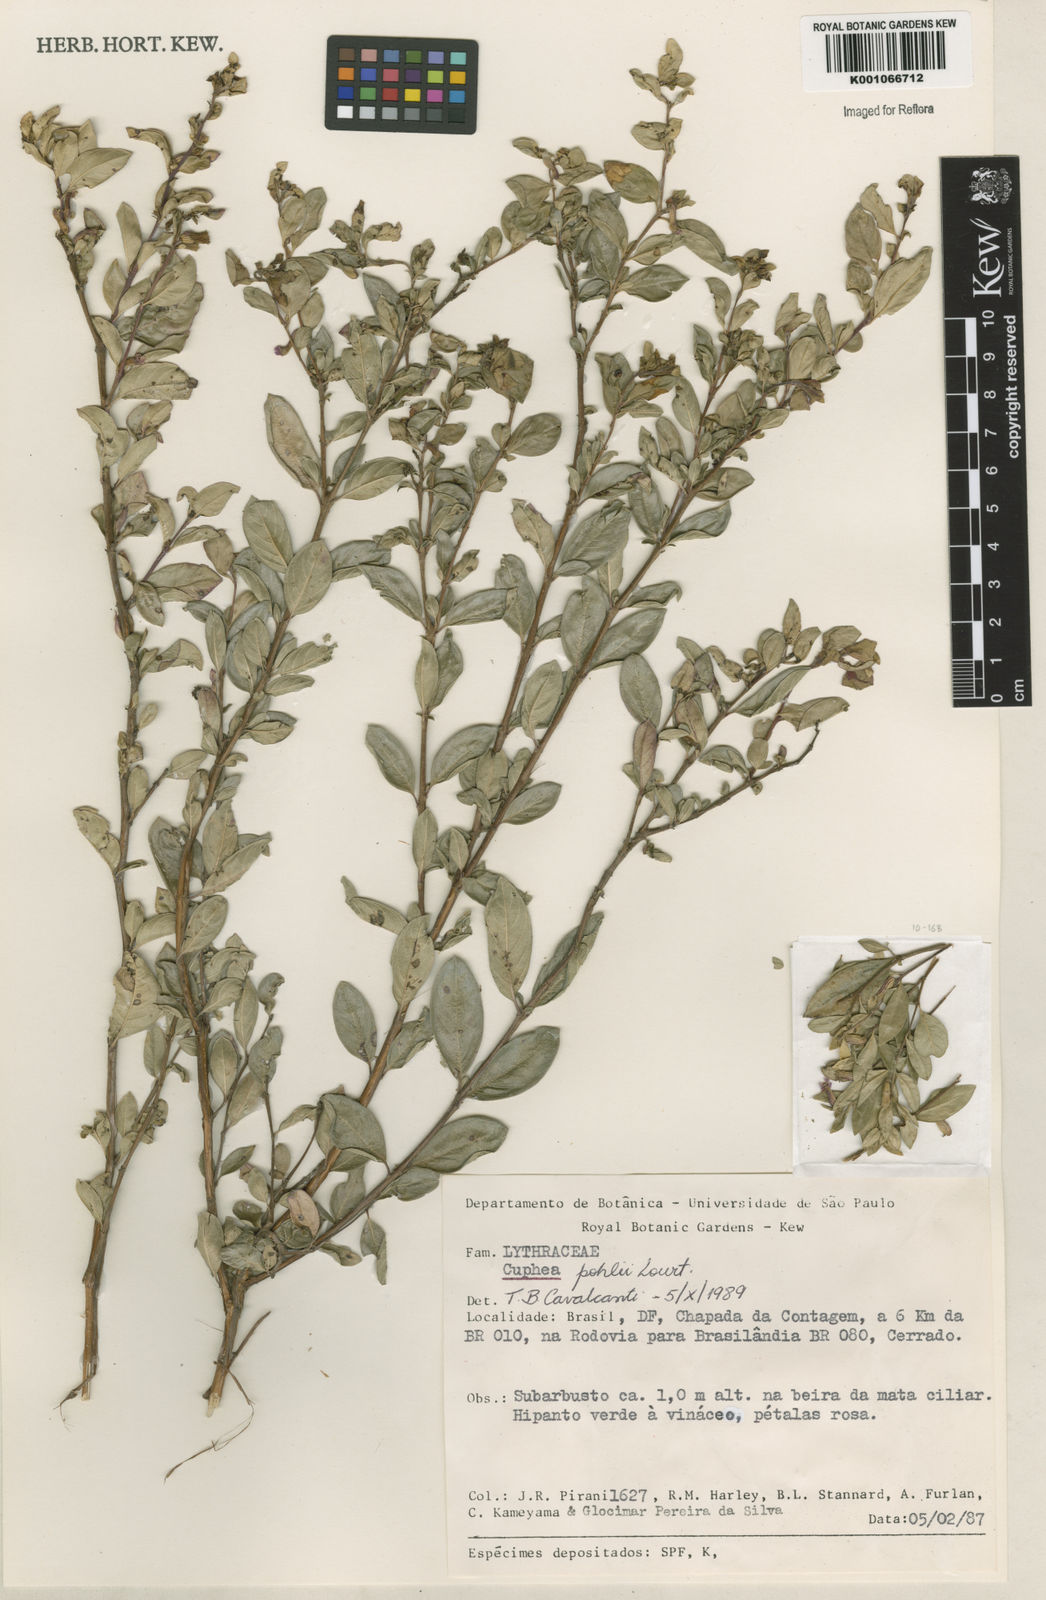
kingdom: Plantae
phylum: Tracheophyta
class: Magnoliopsida
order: Myrtales
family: Lythraceae
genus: Cuphea
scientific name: Cuphea pohlii
